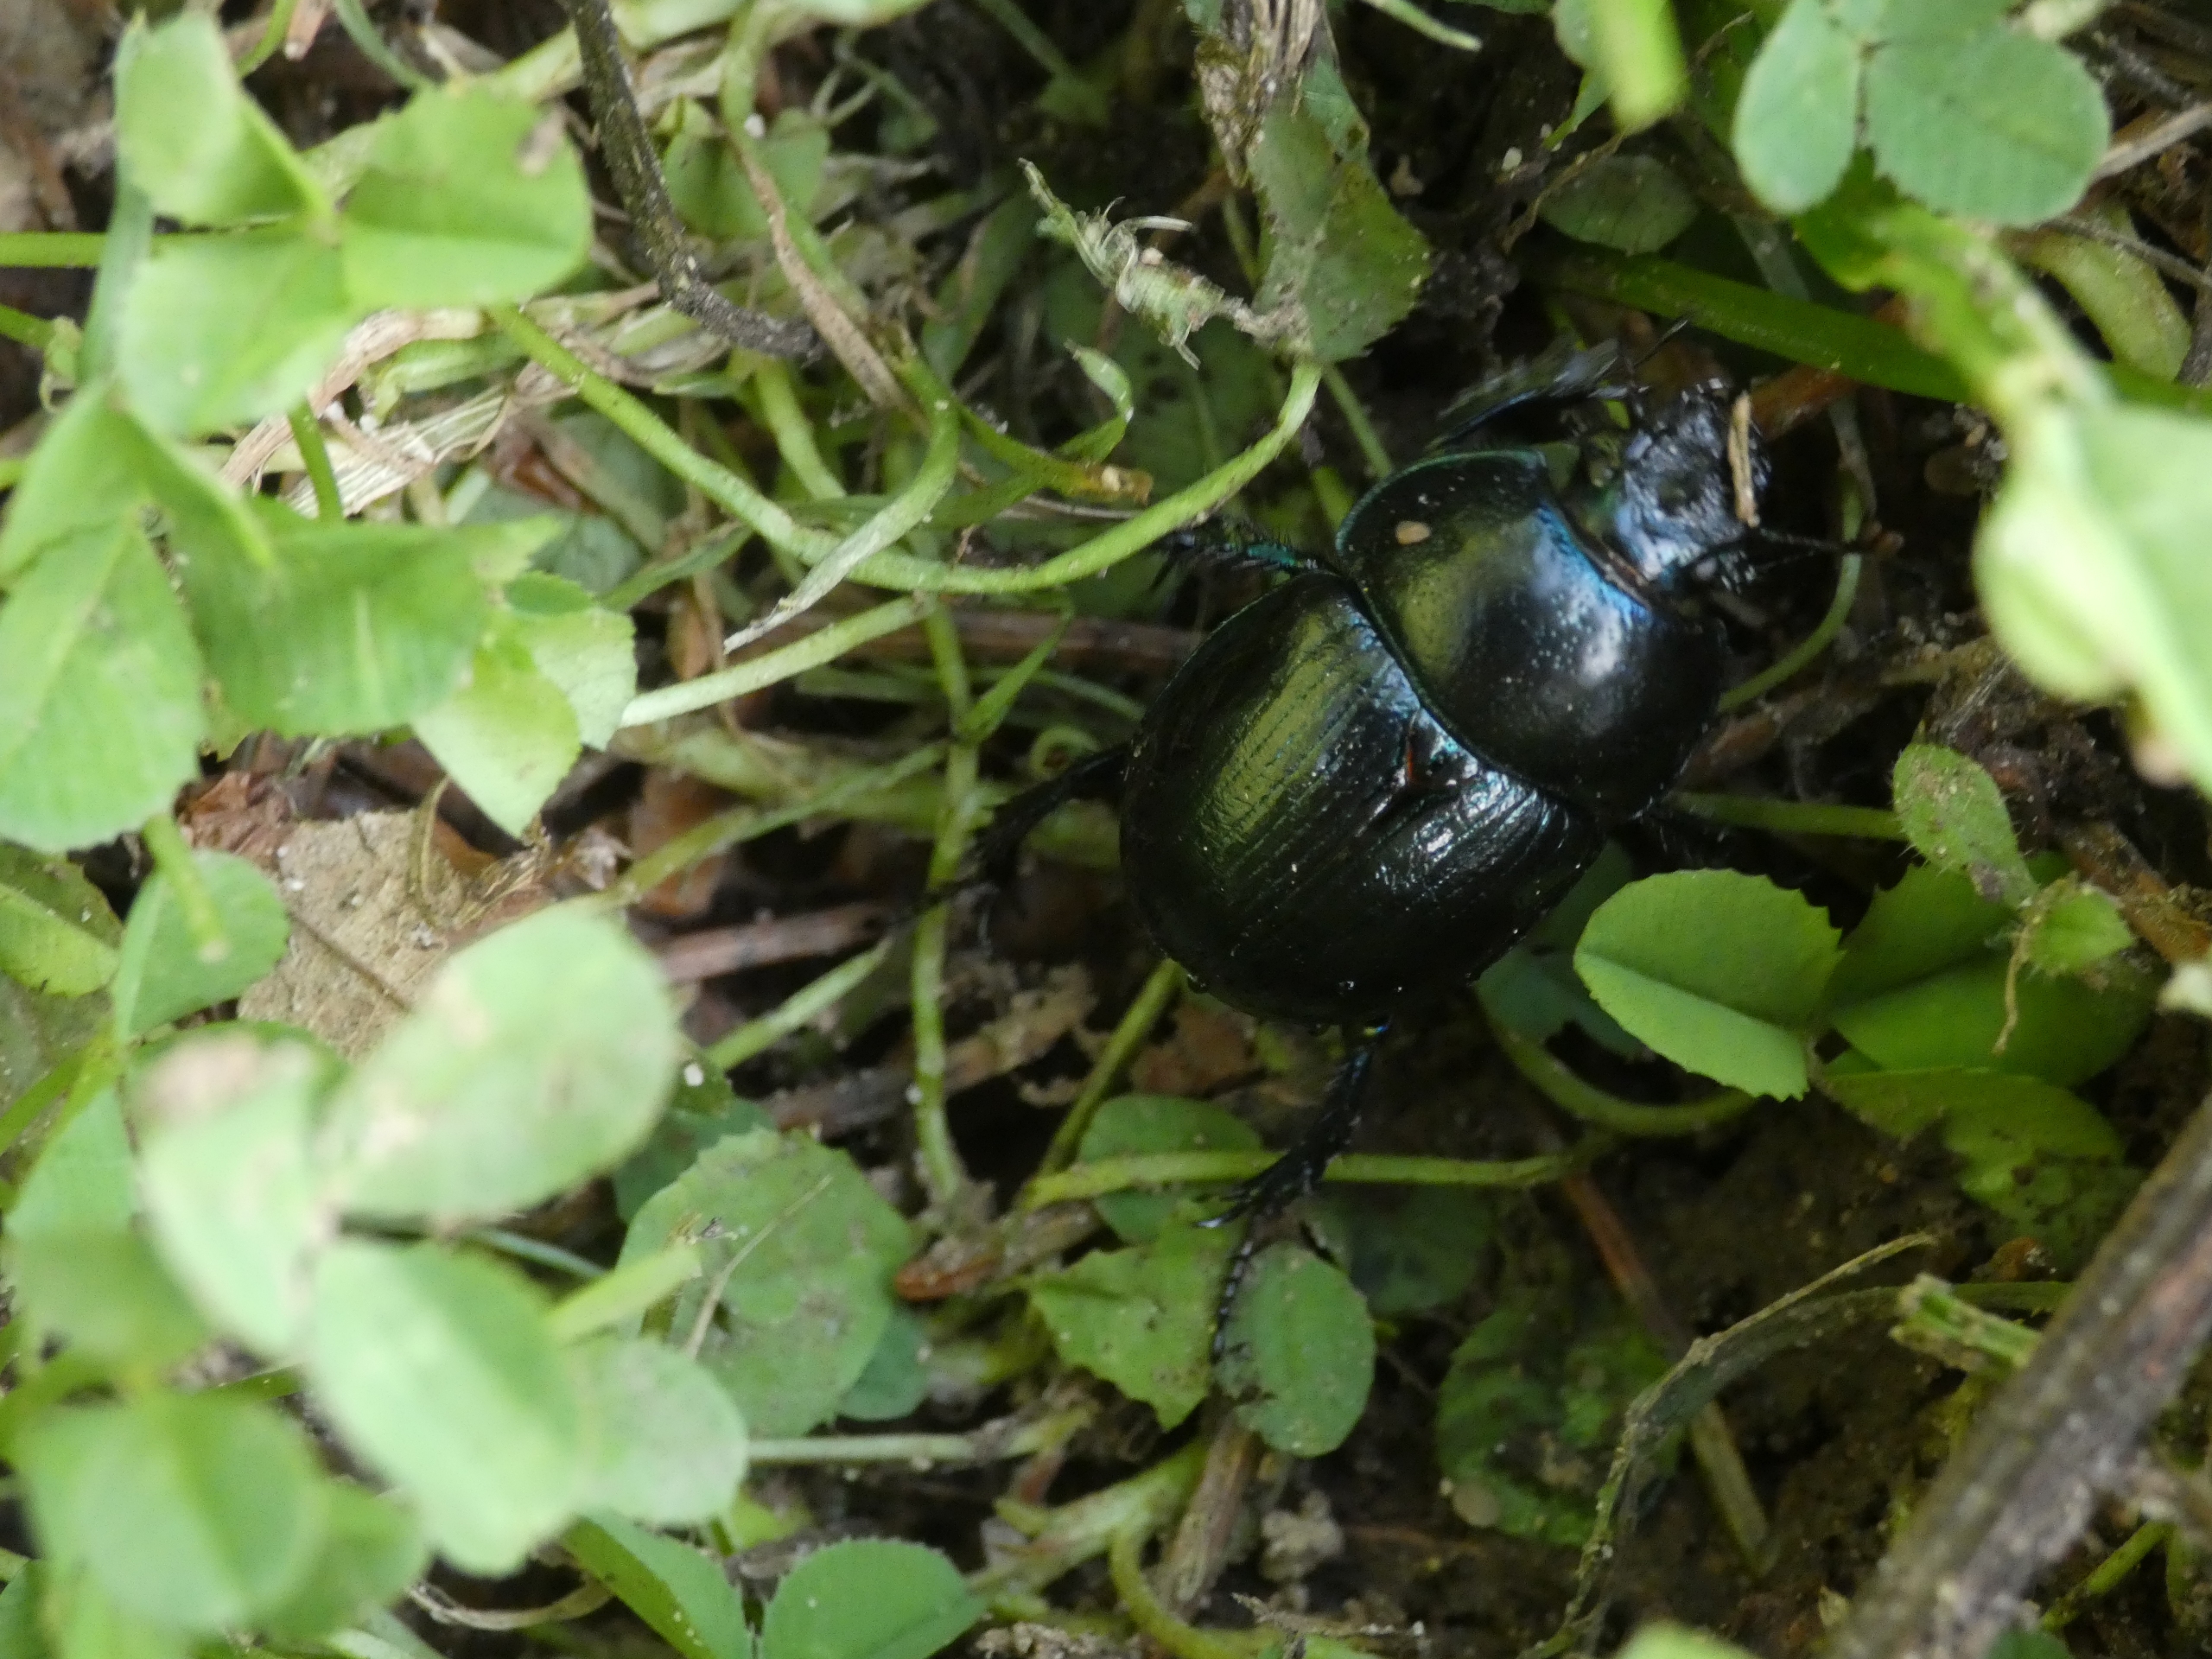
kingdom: Animalia
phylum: Arthropoda
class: Insecta
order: Coleoptera
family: Geotrupidae
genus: Anoplotrupes
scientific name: Anoplotrupes stercorosus
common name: Skovskarnbasse
